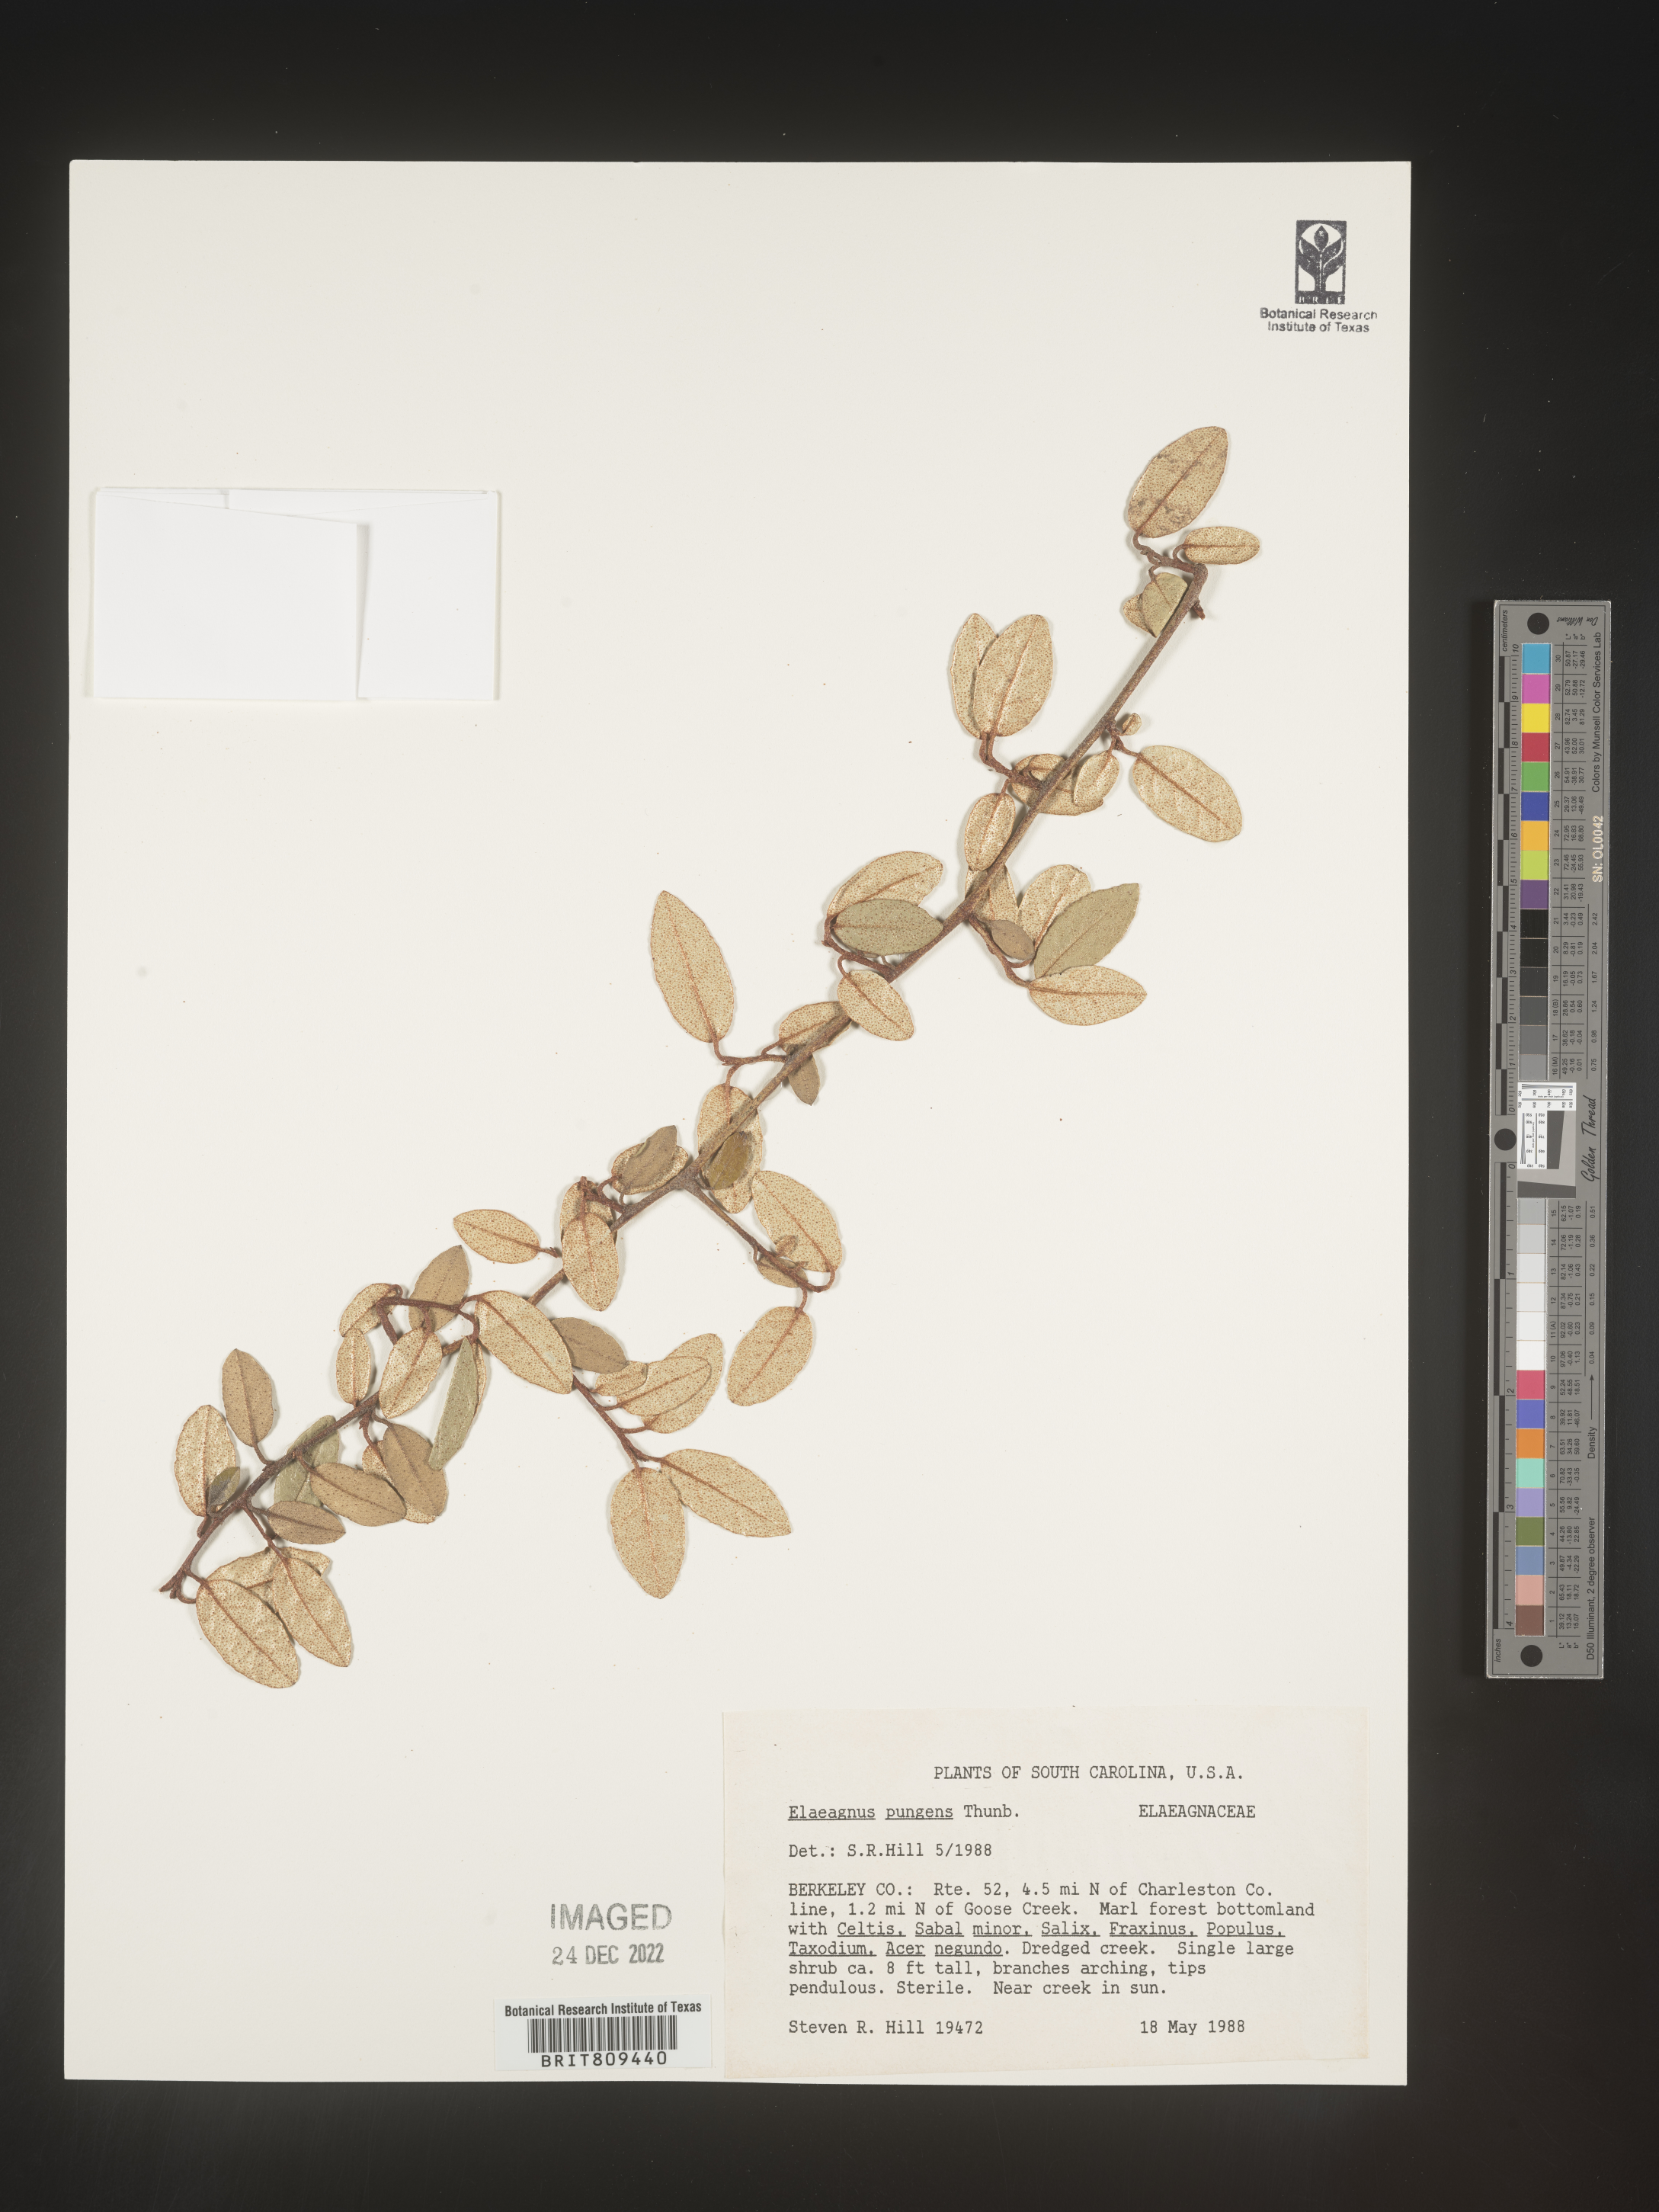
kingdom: Plantae
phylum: Tracheophyta
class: Magnoliopsida
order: Rosales
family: Elaeagnaceae
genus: Elaeagnus
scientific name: Elaeagnus
